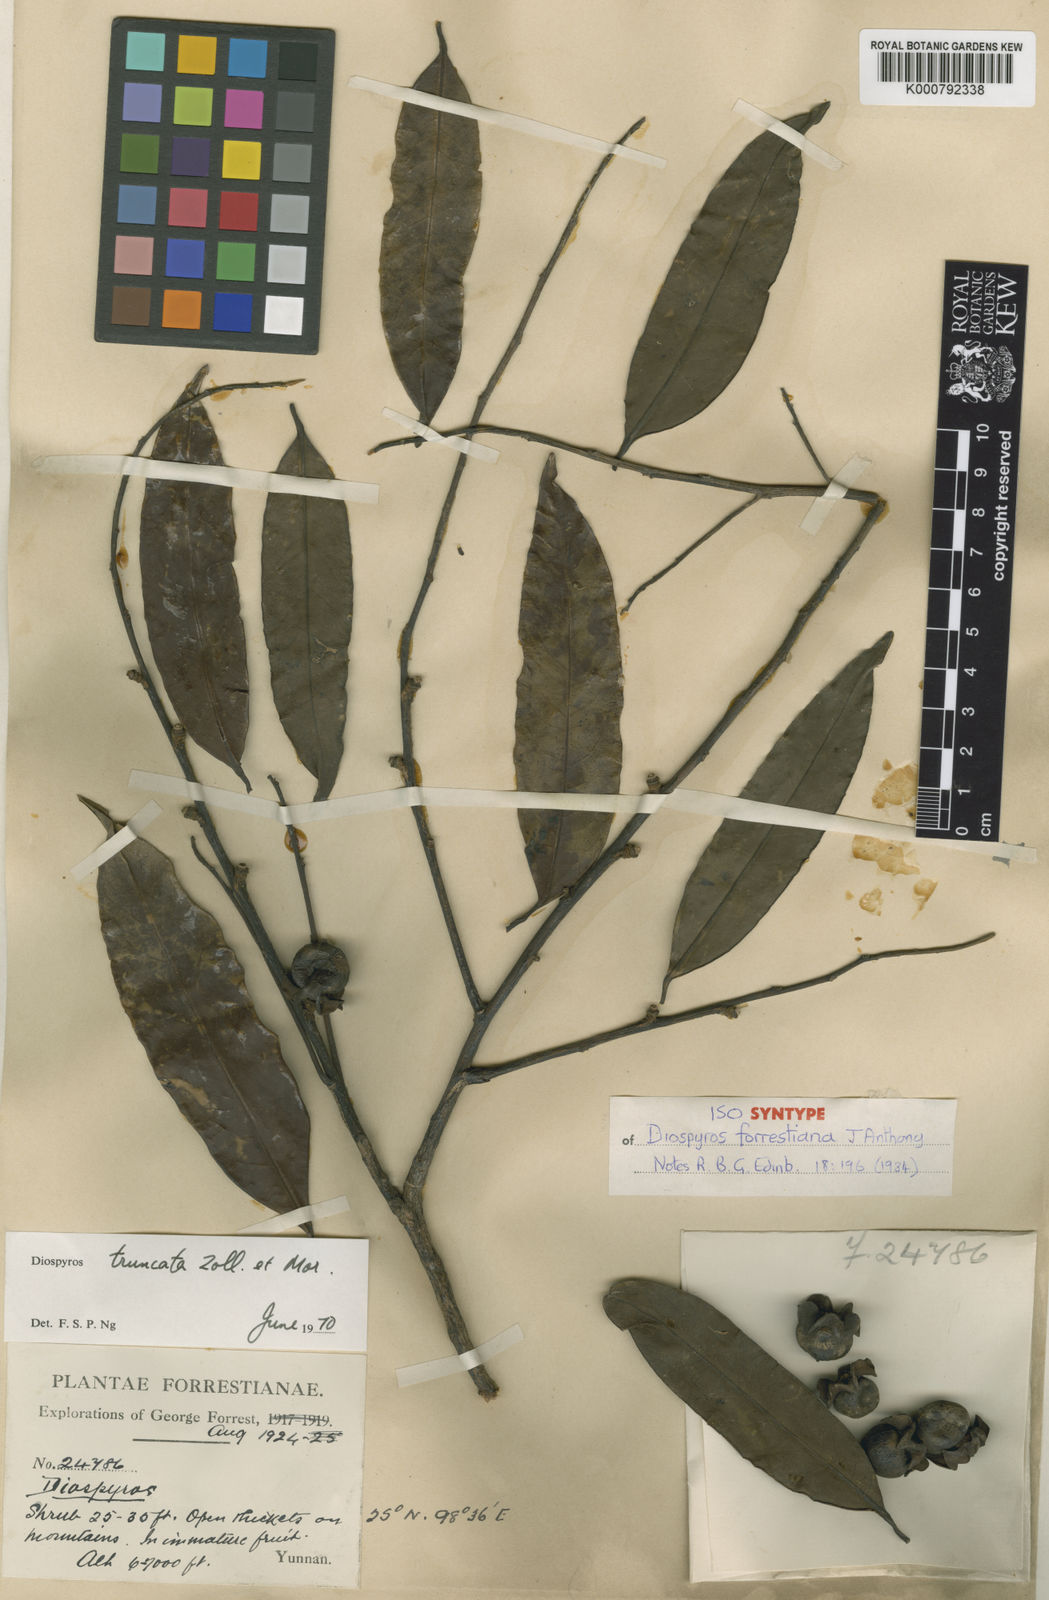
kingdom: Plantae
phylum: Tracheophyta
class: Magnoliopsida
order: Ericales
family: Ebenaceae
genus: Diospyros
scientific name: Diospyros forrestii
